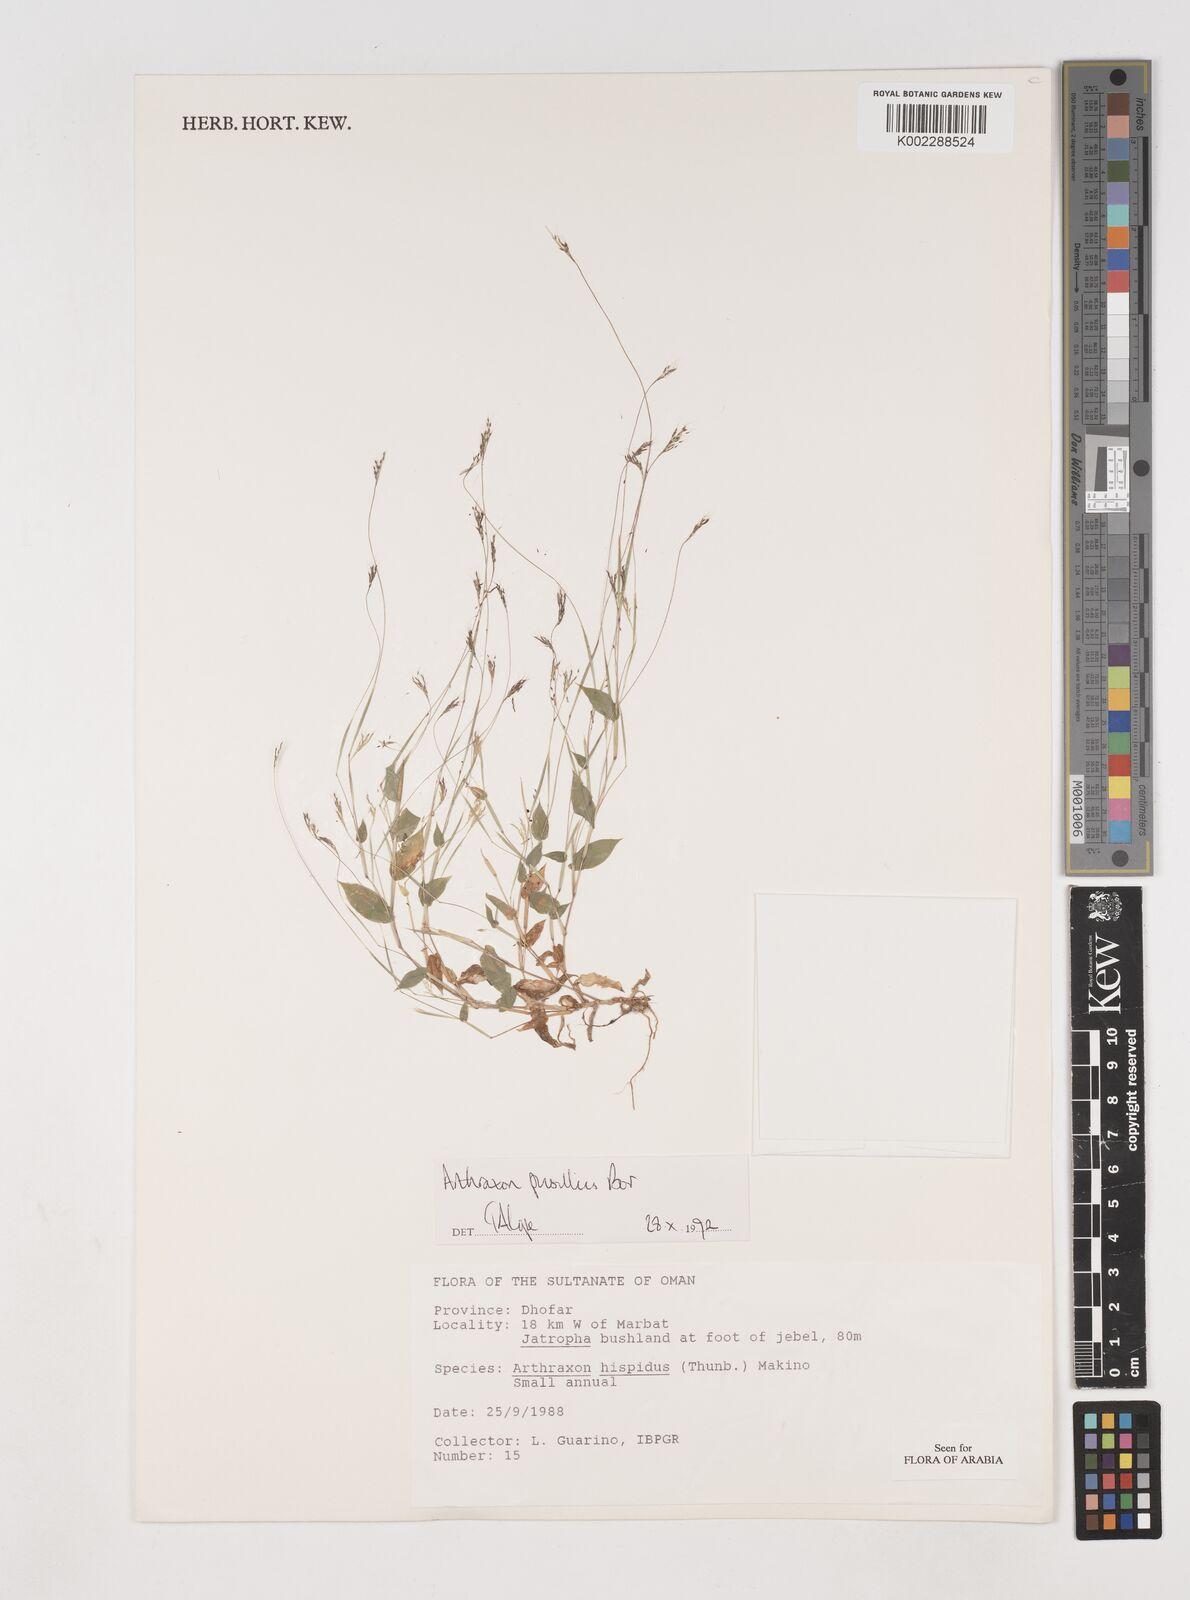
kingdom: Plantae
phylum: Tracheophyta
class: Liliopsida
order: Poales
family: Poaceae
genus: Arthraxon
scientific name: Arthraxon junnarensis
